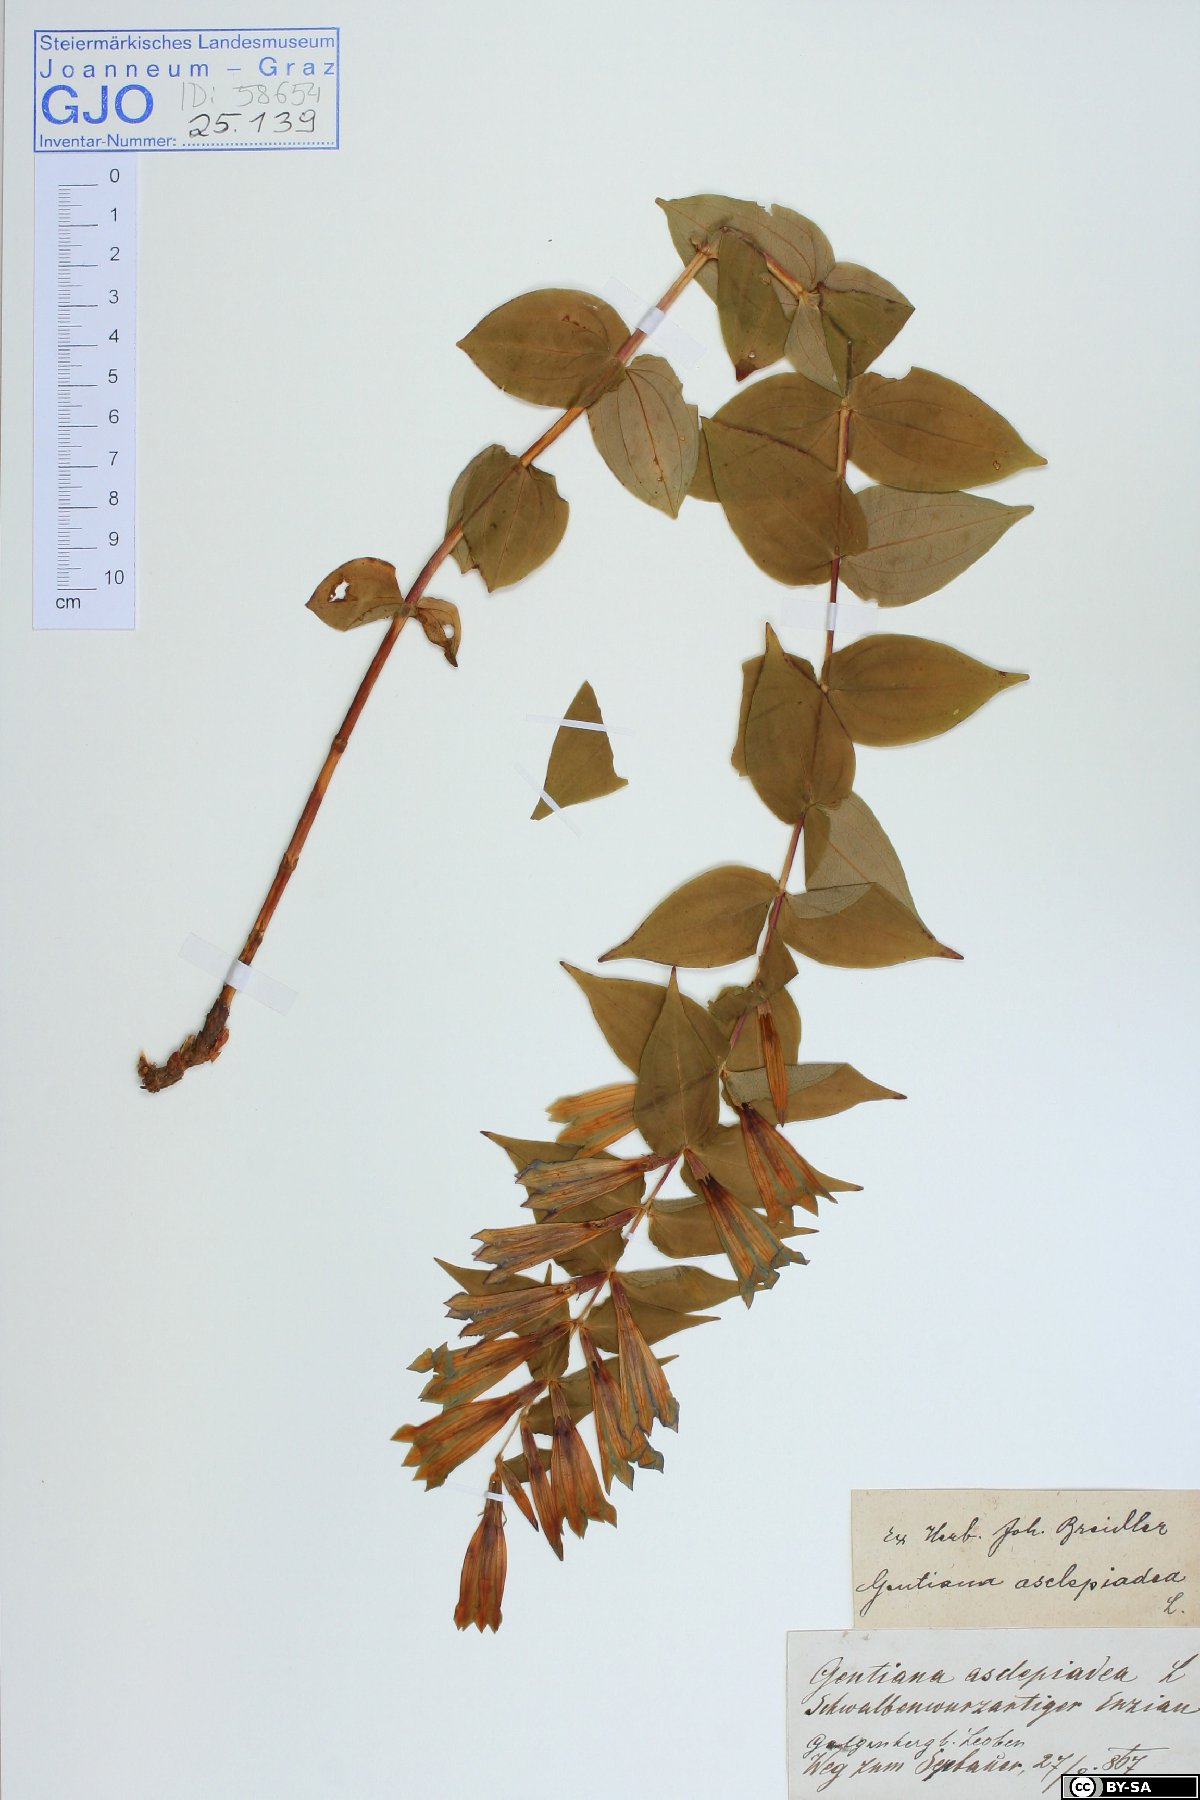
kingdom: Plantae
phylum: Tracheophyta
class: Magnoliopsida
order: Gentianales
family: Gentianaceae
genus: Gentiana
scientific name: Gentiana asclepiadea
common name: Willow gentian
